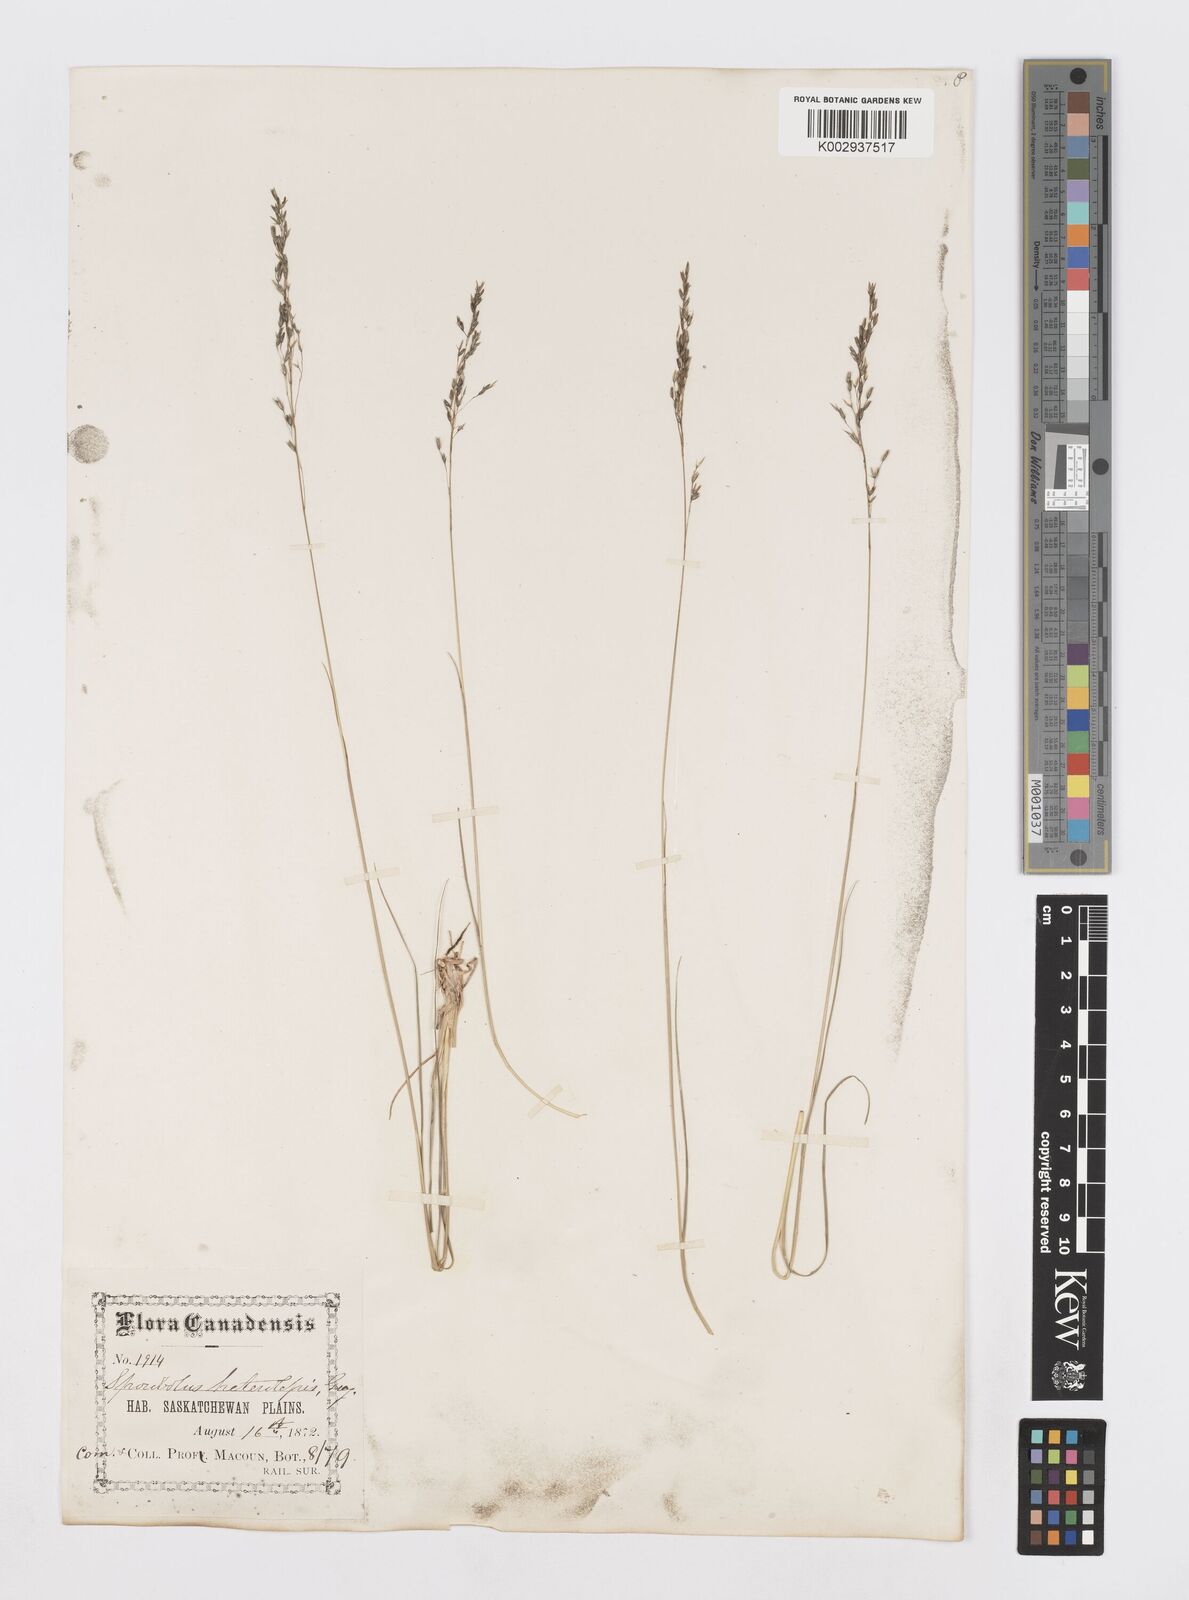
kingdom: Plantae
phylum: Tracheophyta
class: Liliopsida
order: Poales
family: Poaceae
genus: Sporobolus
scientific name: Sporobolus heterolepis
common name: Prairie dropseed
